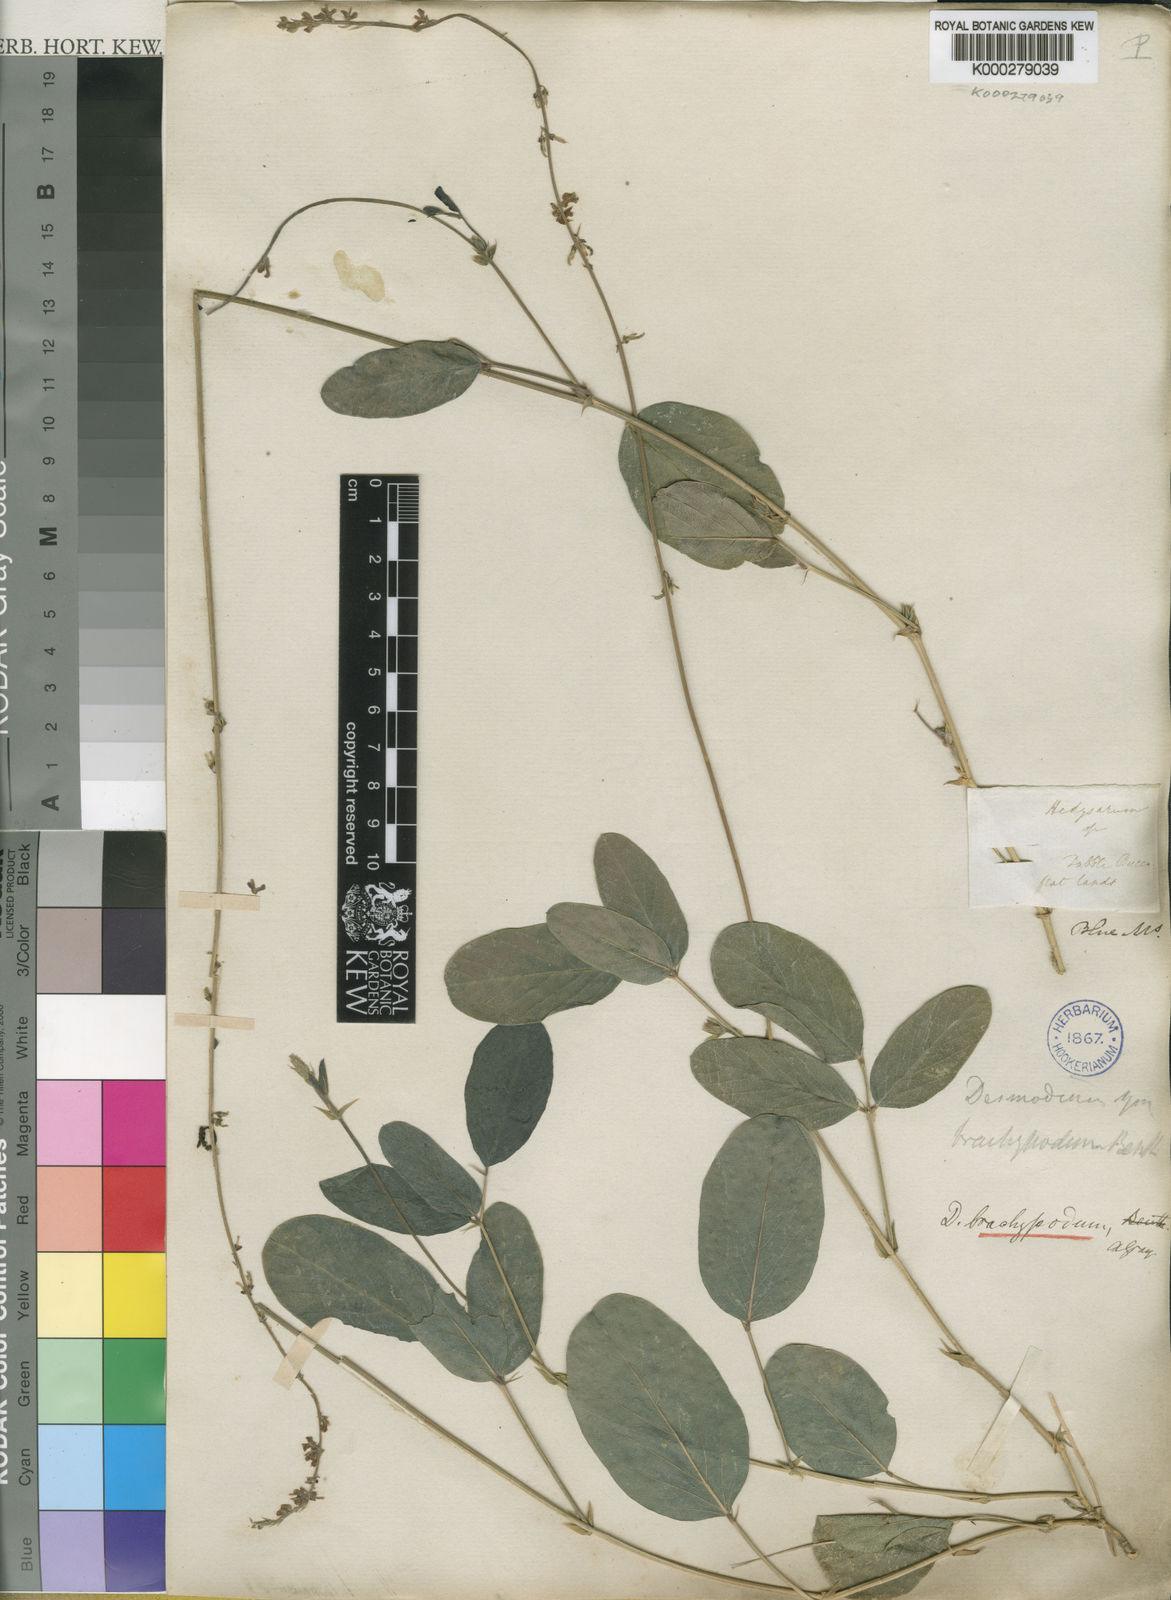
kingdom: Plantae
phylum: Tracheophyta
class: Magnoliopsida
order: Fabales
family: Fabaceae
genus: Oxytes
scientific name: Oxytes brachypoda
